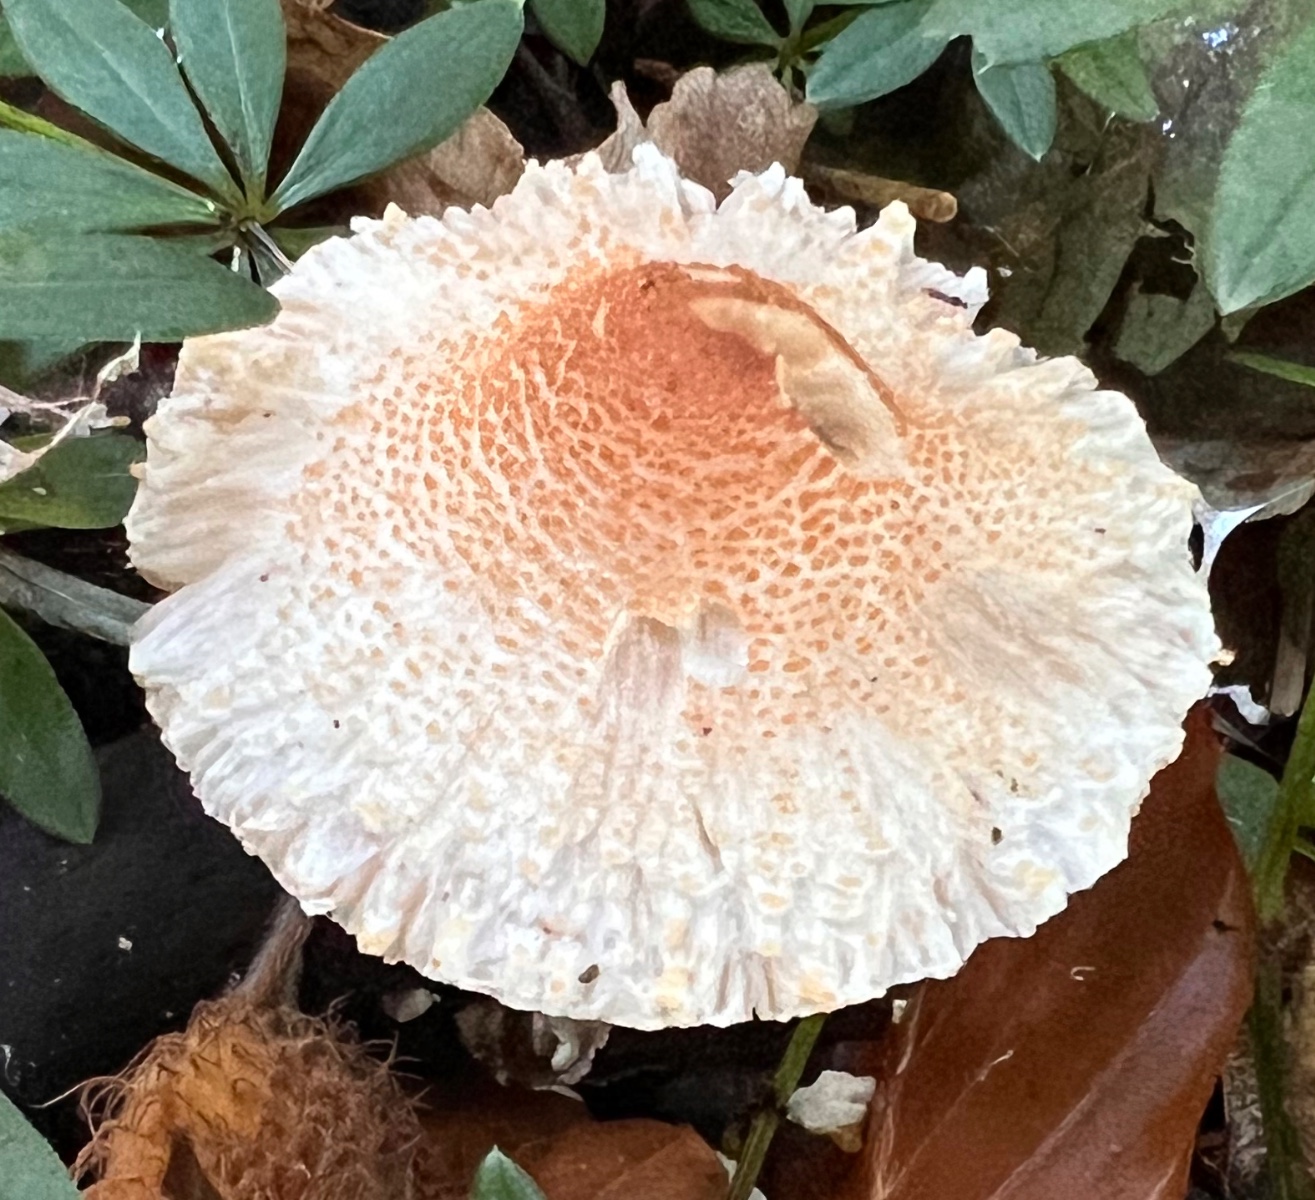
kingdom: Fungi
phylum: Basidiomycota
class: Agaricomycetes
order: Agaricales
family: Agaricaceae
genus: Lepiota
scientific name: Lepiota cristata
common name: stinkende parasolhat
